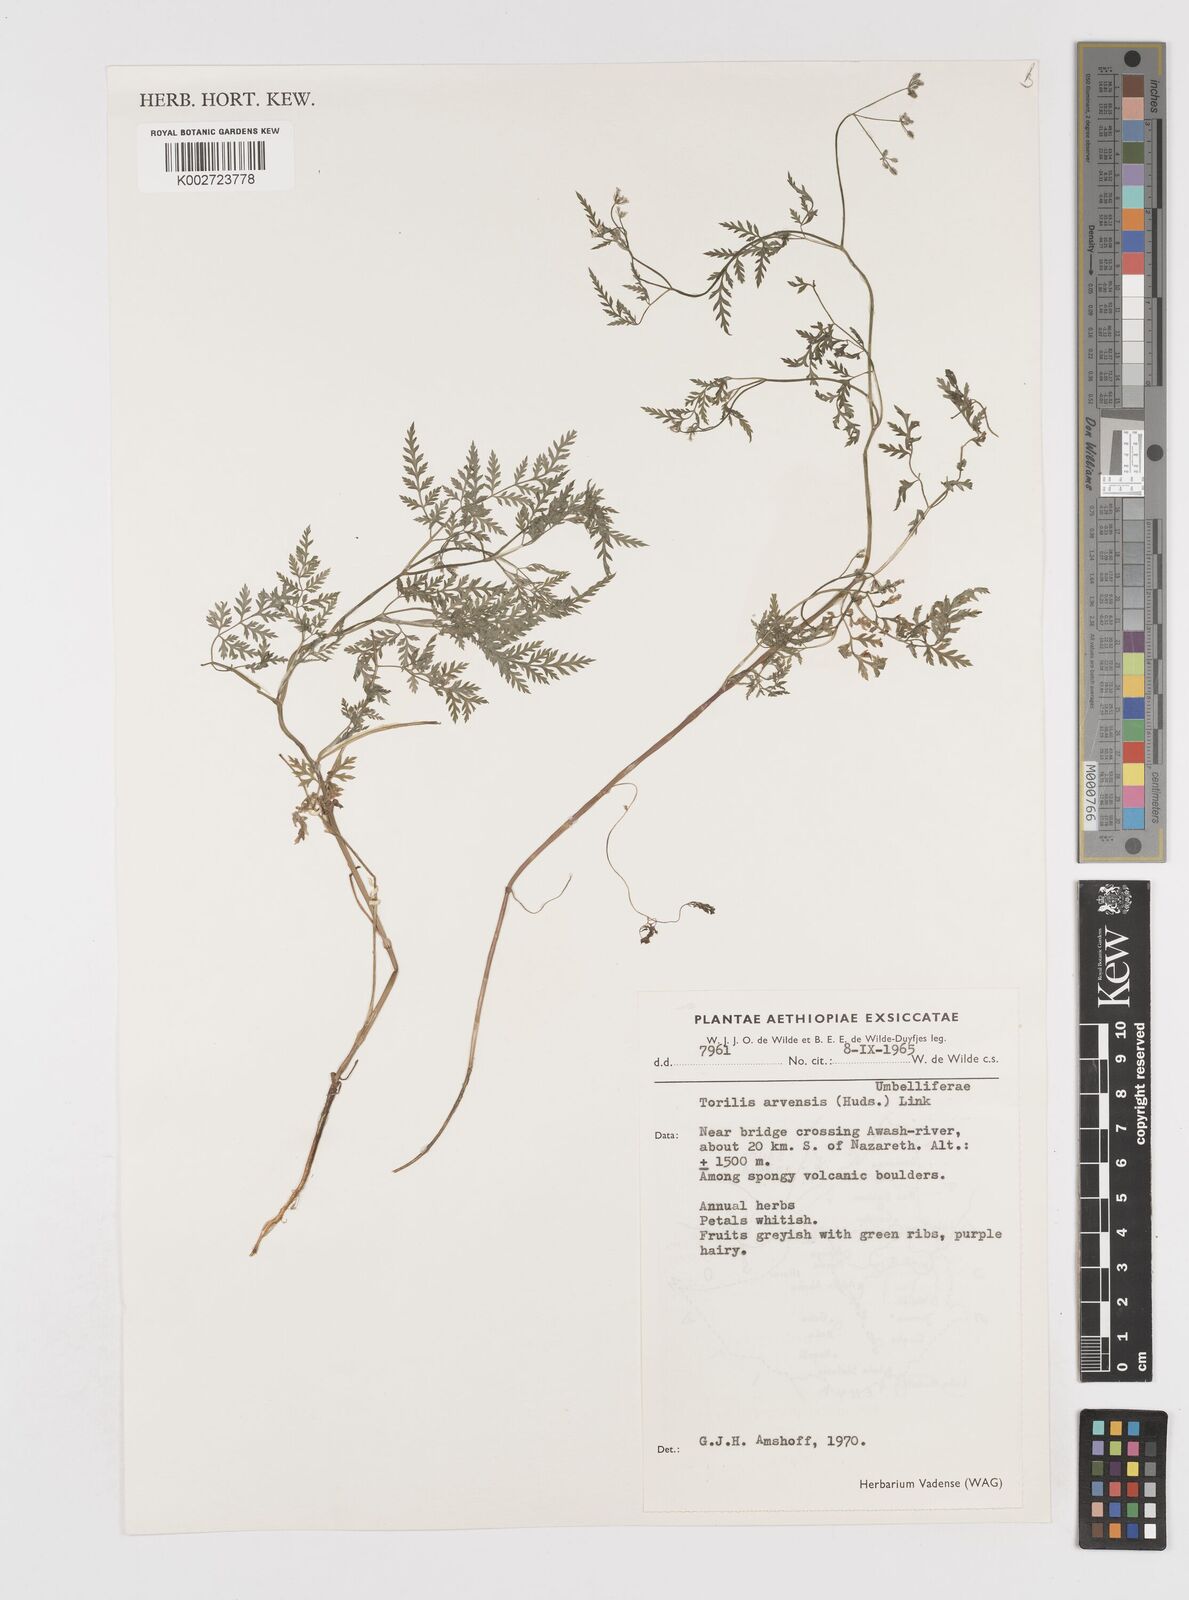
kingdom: Plantae
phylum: Tracheophyta
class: Magnoliopsida
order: Apiales
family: Apiaceae
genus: Torilis
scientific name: Torilis arvensis
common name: Spreading hedge-parsley
